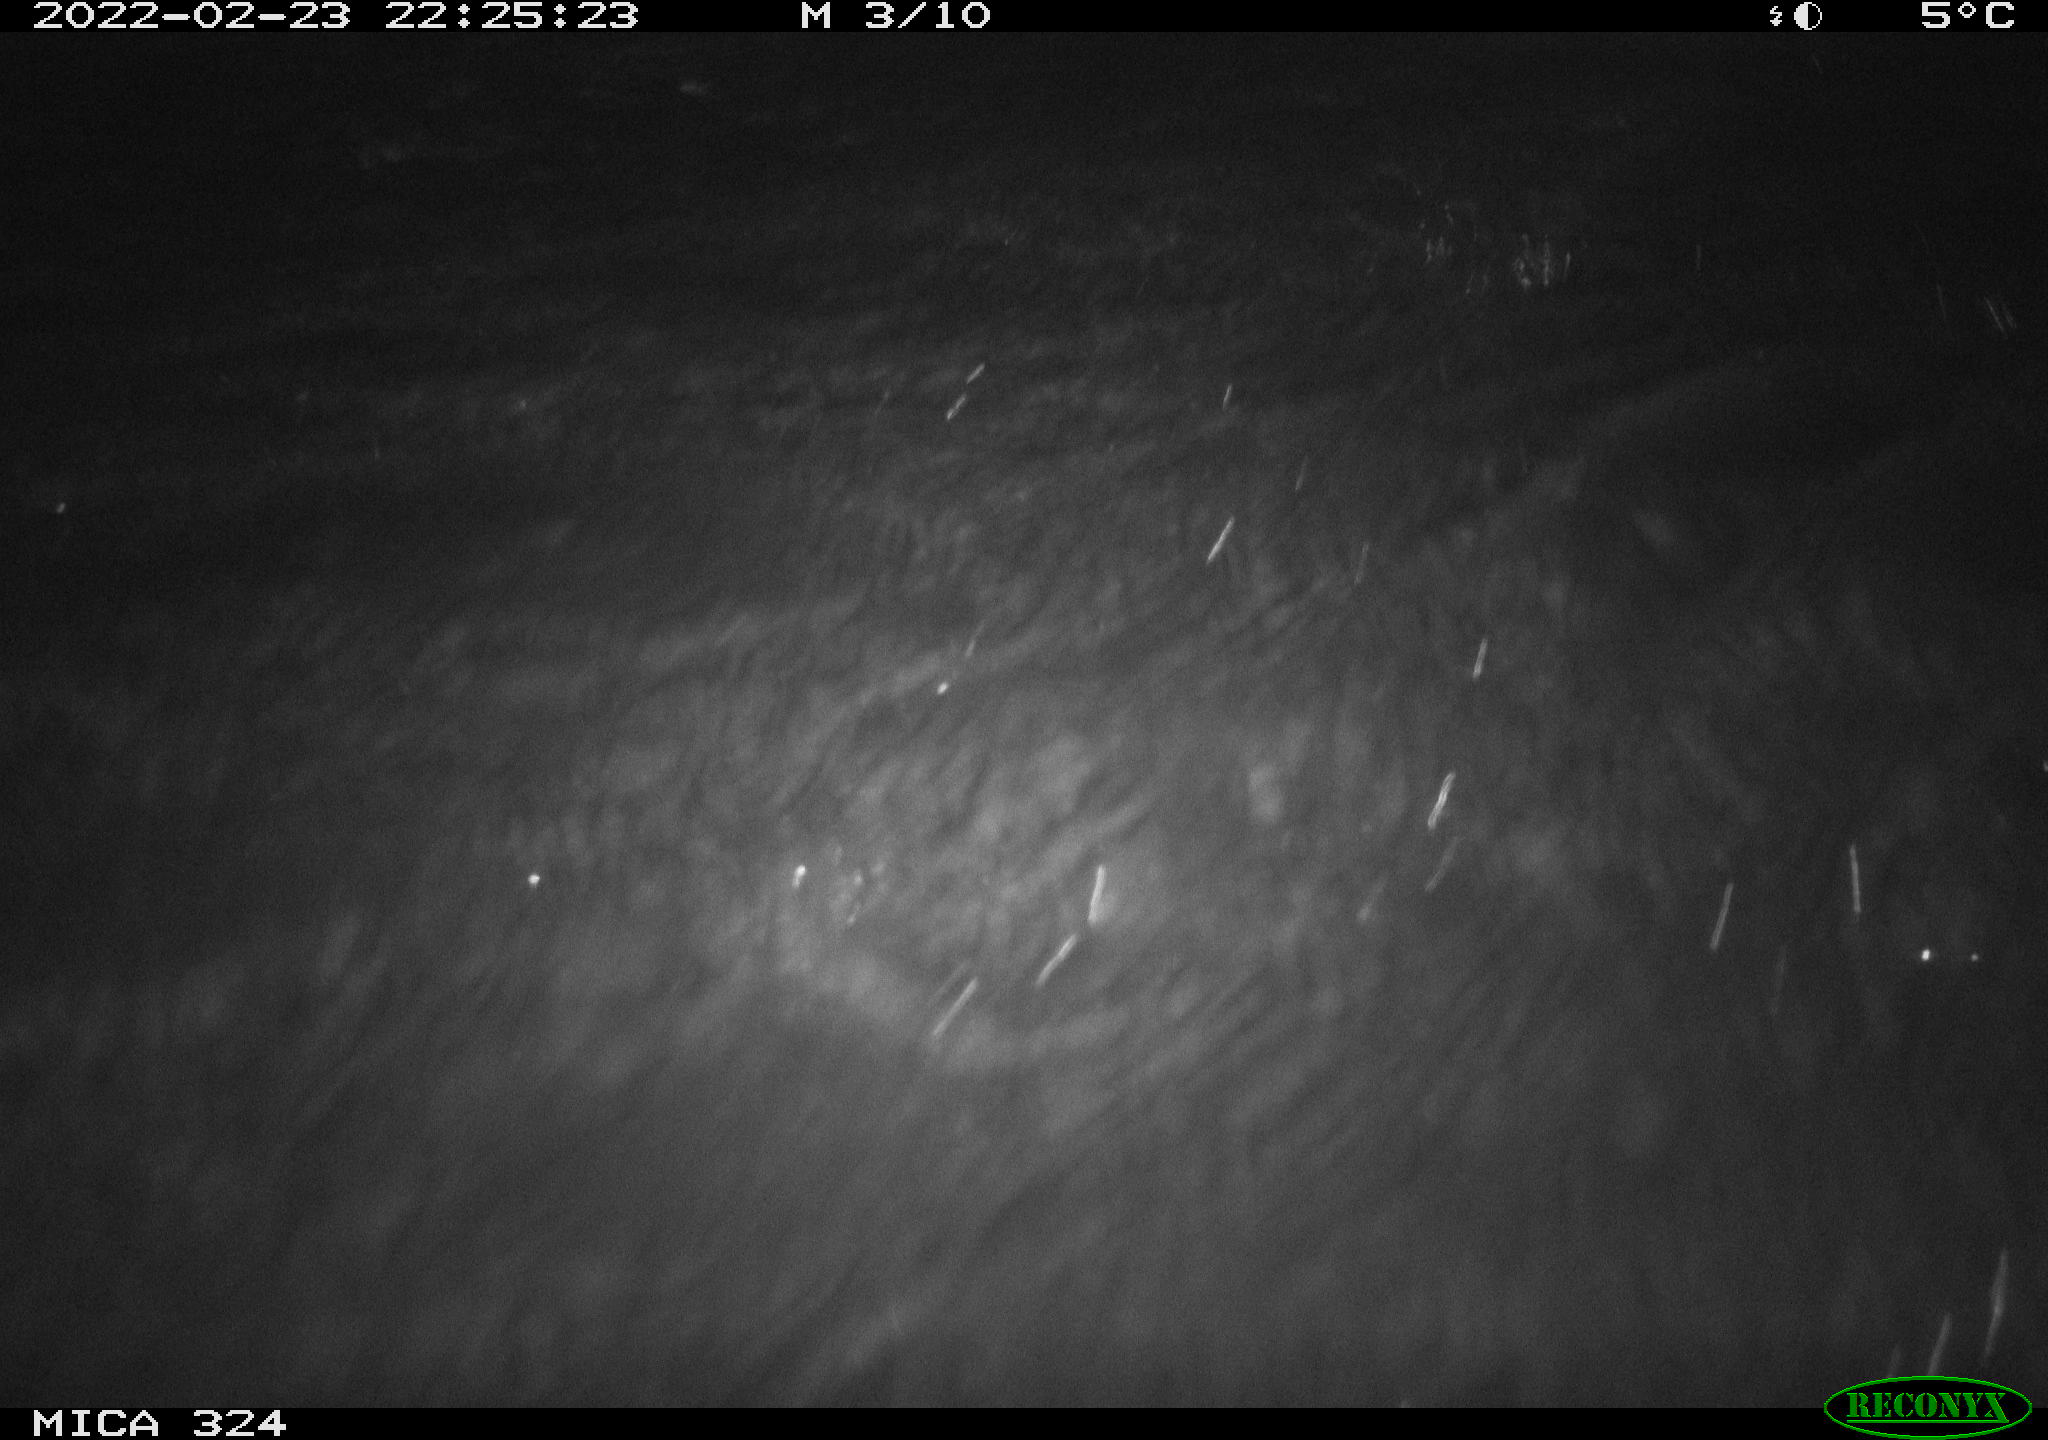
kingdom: Animalia
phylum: Chordata
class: Mammalia
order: Rodentia
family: Cricetidae
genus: Ondatra
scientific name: Ondatra zibethicus
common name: Muskrat
